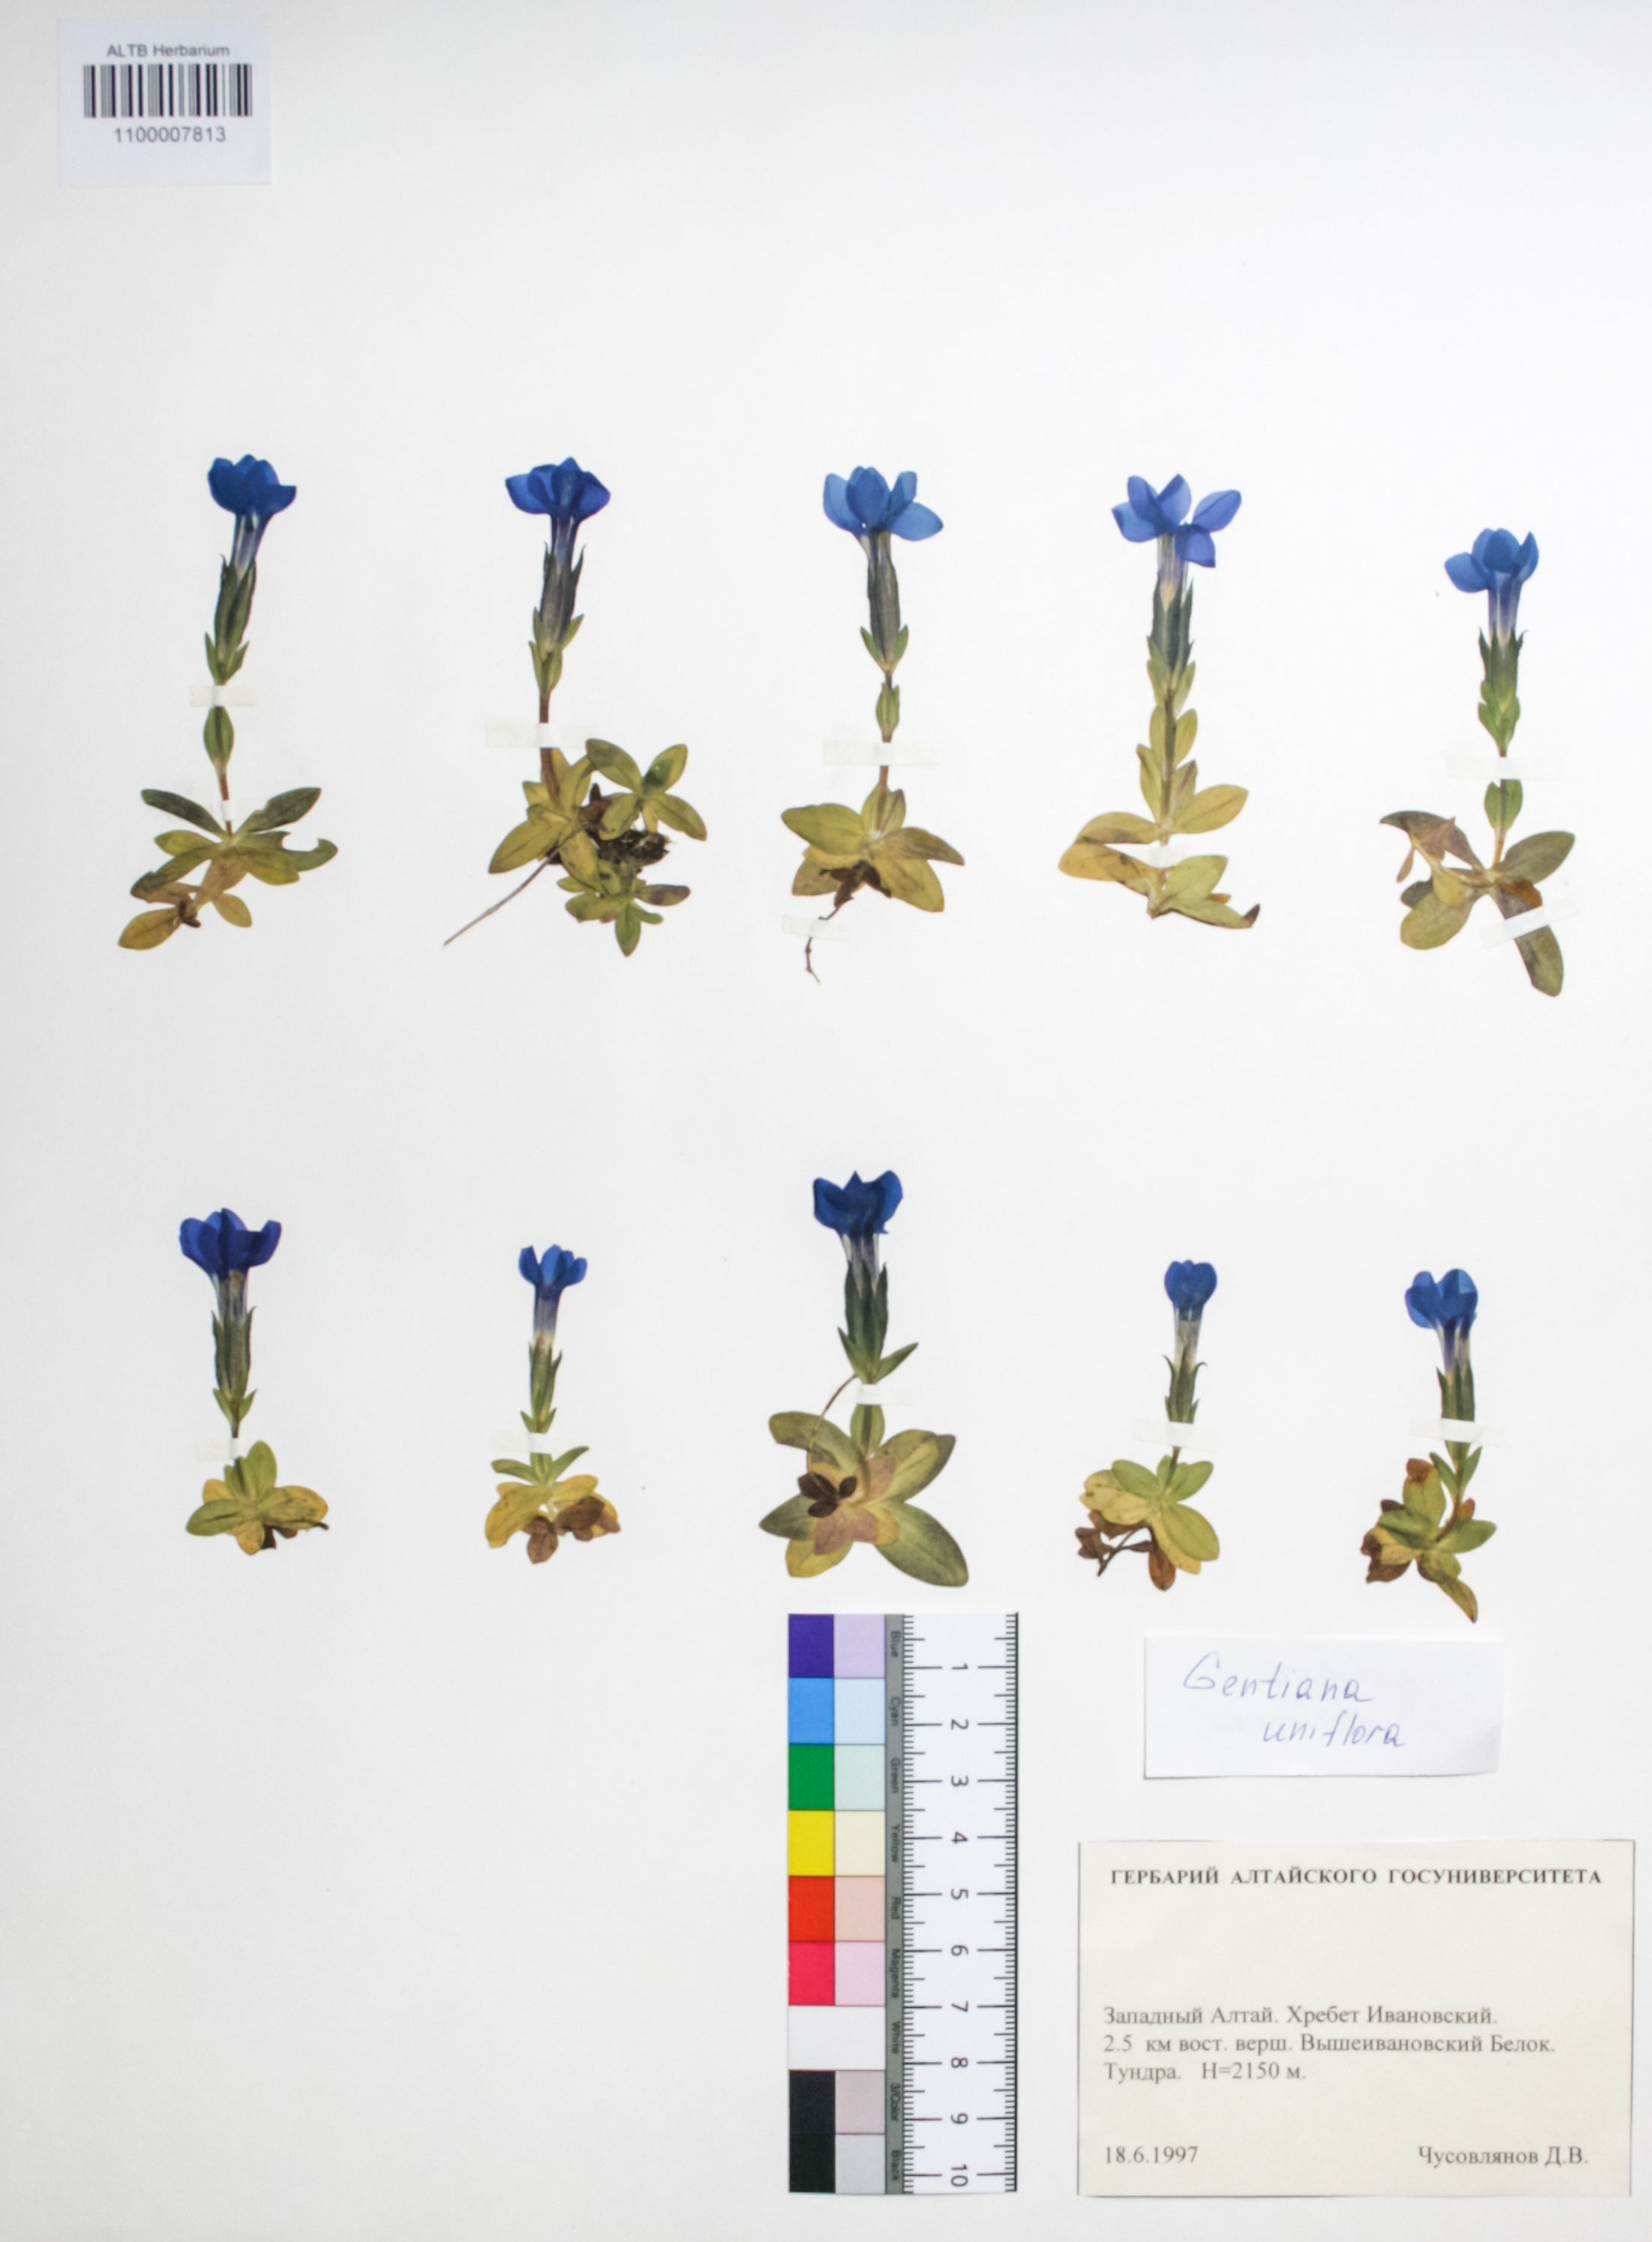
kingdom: Plantae
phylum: Tracheophyta
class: Magnoliopsida
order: Gentianales
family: Gentianaceae
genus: Gentiana
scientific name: Gentiana grandiflora
